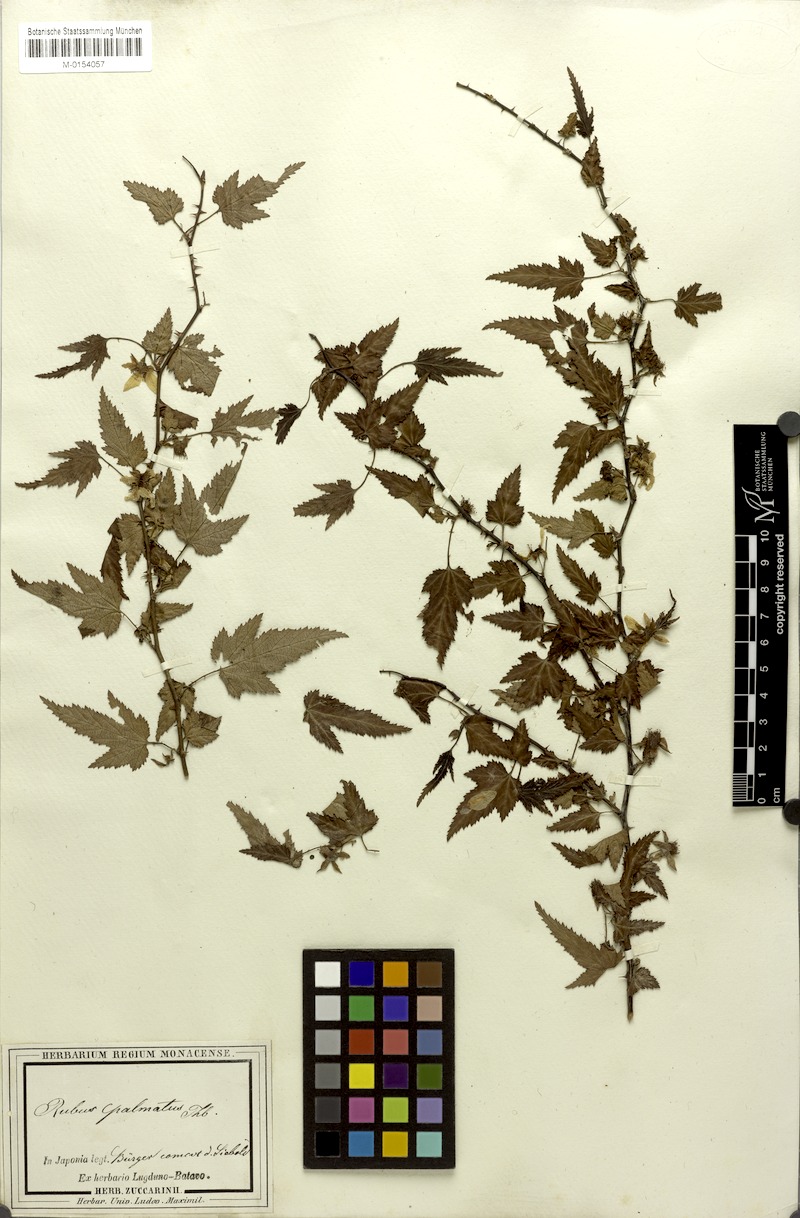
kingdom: Plantae
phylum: Tracheophyta
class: Magnoliopsida
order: Rosales
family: Rosaceae
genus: Rubus
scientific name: Rubus palmatus
